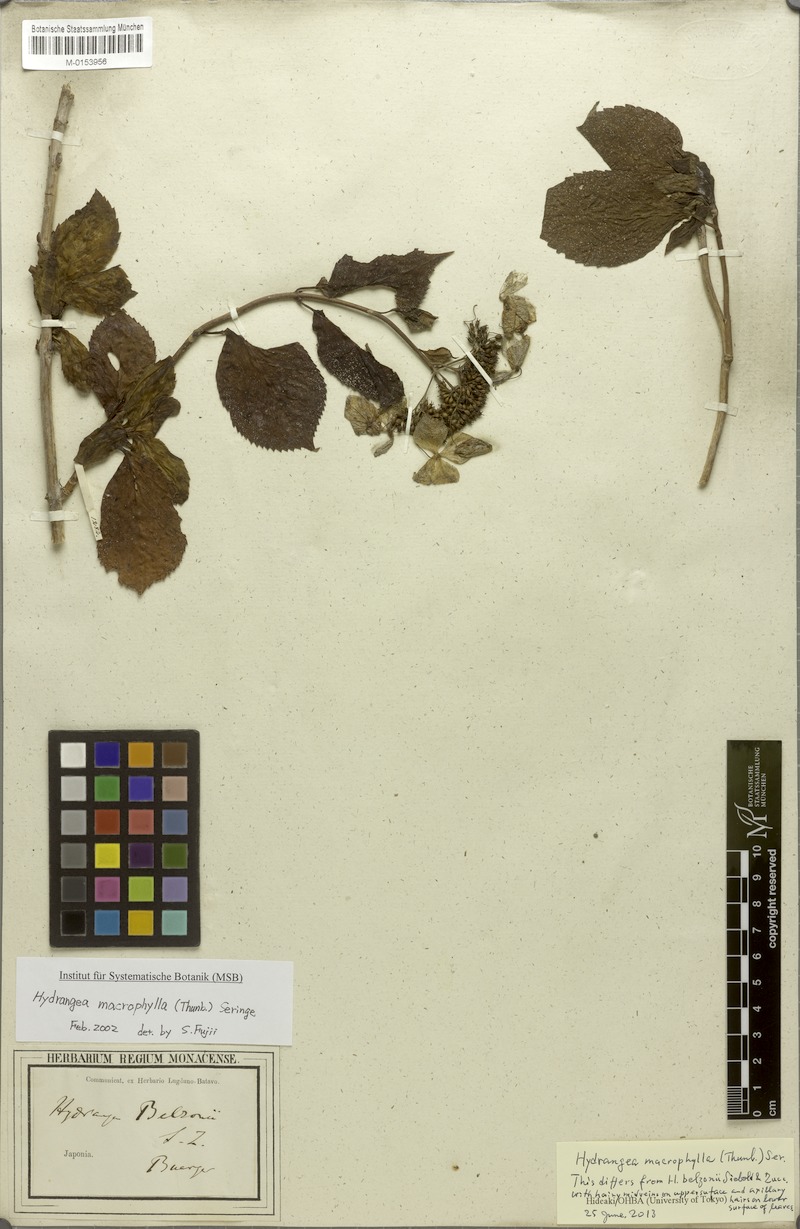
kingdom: Plantae
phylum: Tracheophyta
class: Magnoliopsida
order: Cornales
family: Hydrangeaceae
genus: Hydrangea
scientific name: Hydrangea macrophylla
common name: Hydrangea
